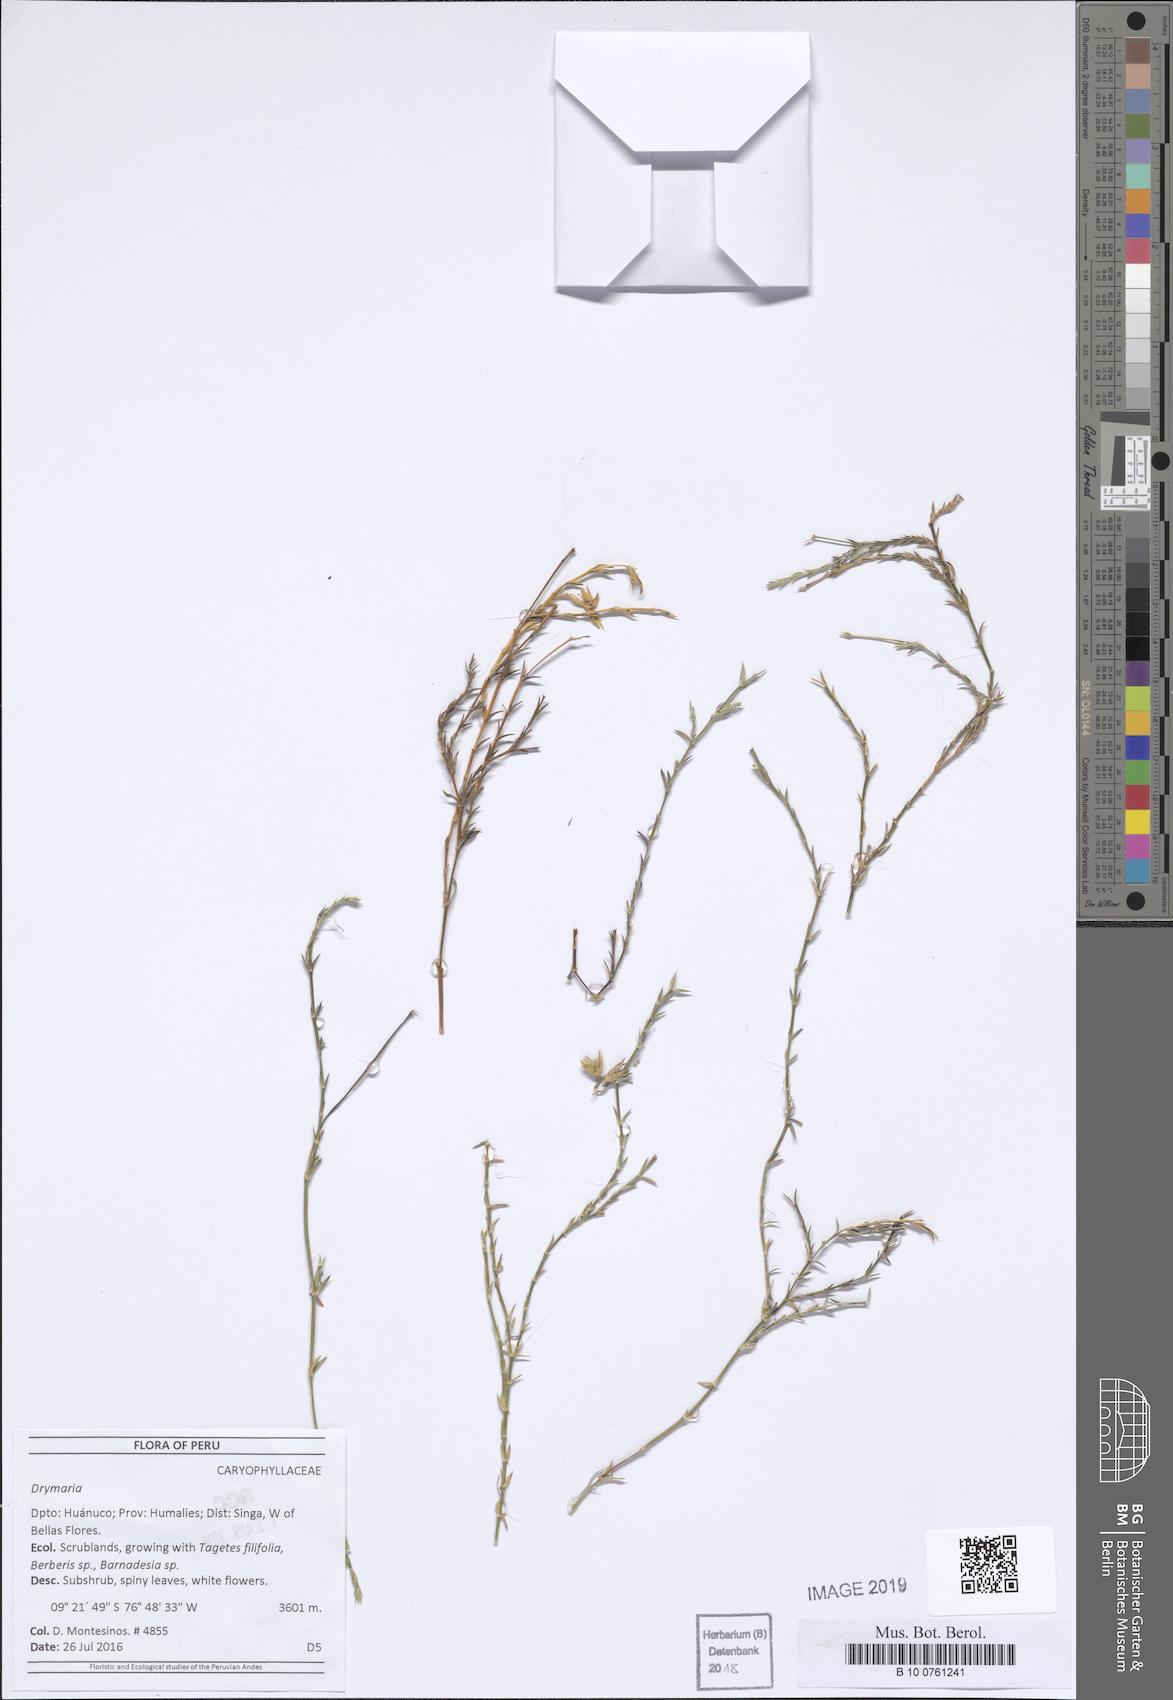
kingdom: Plantae
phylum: Tracheophyta
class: Magnoliopsida
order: Caryophyllales
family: Caryophyllaceae
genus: Drymaria
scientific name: Drymaria
